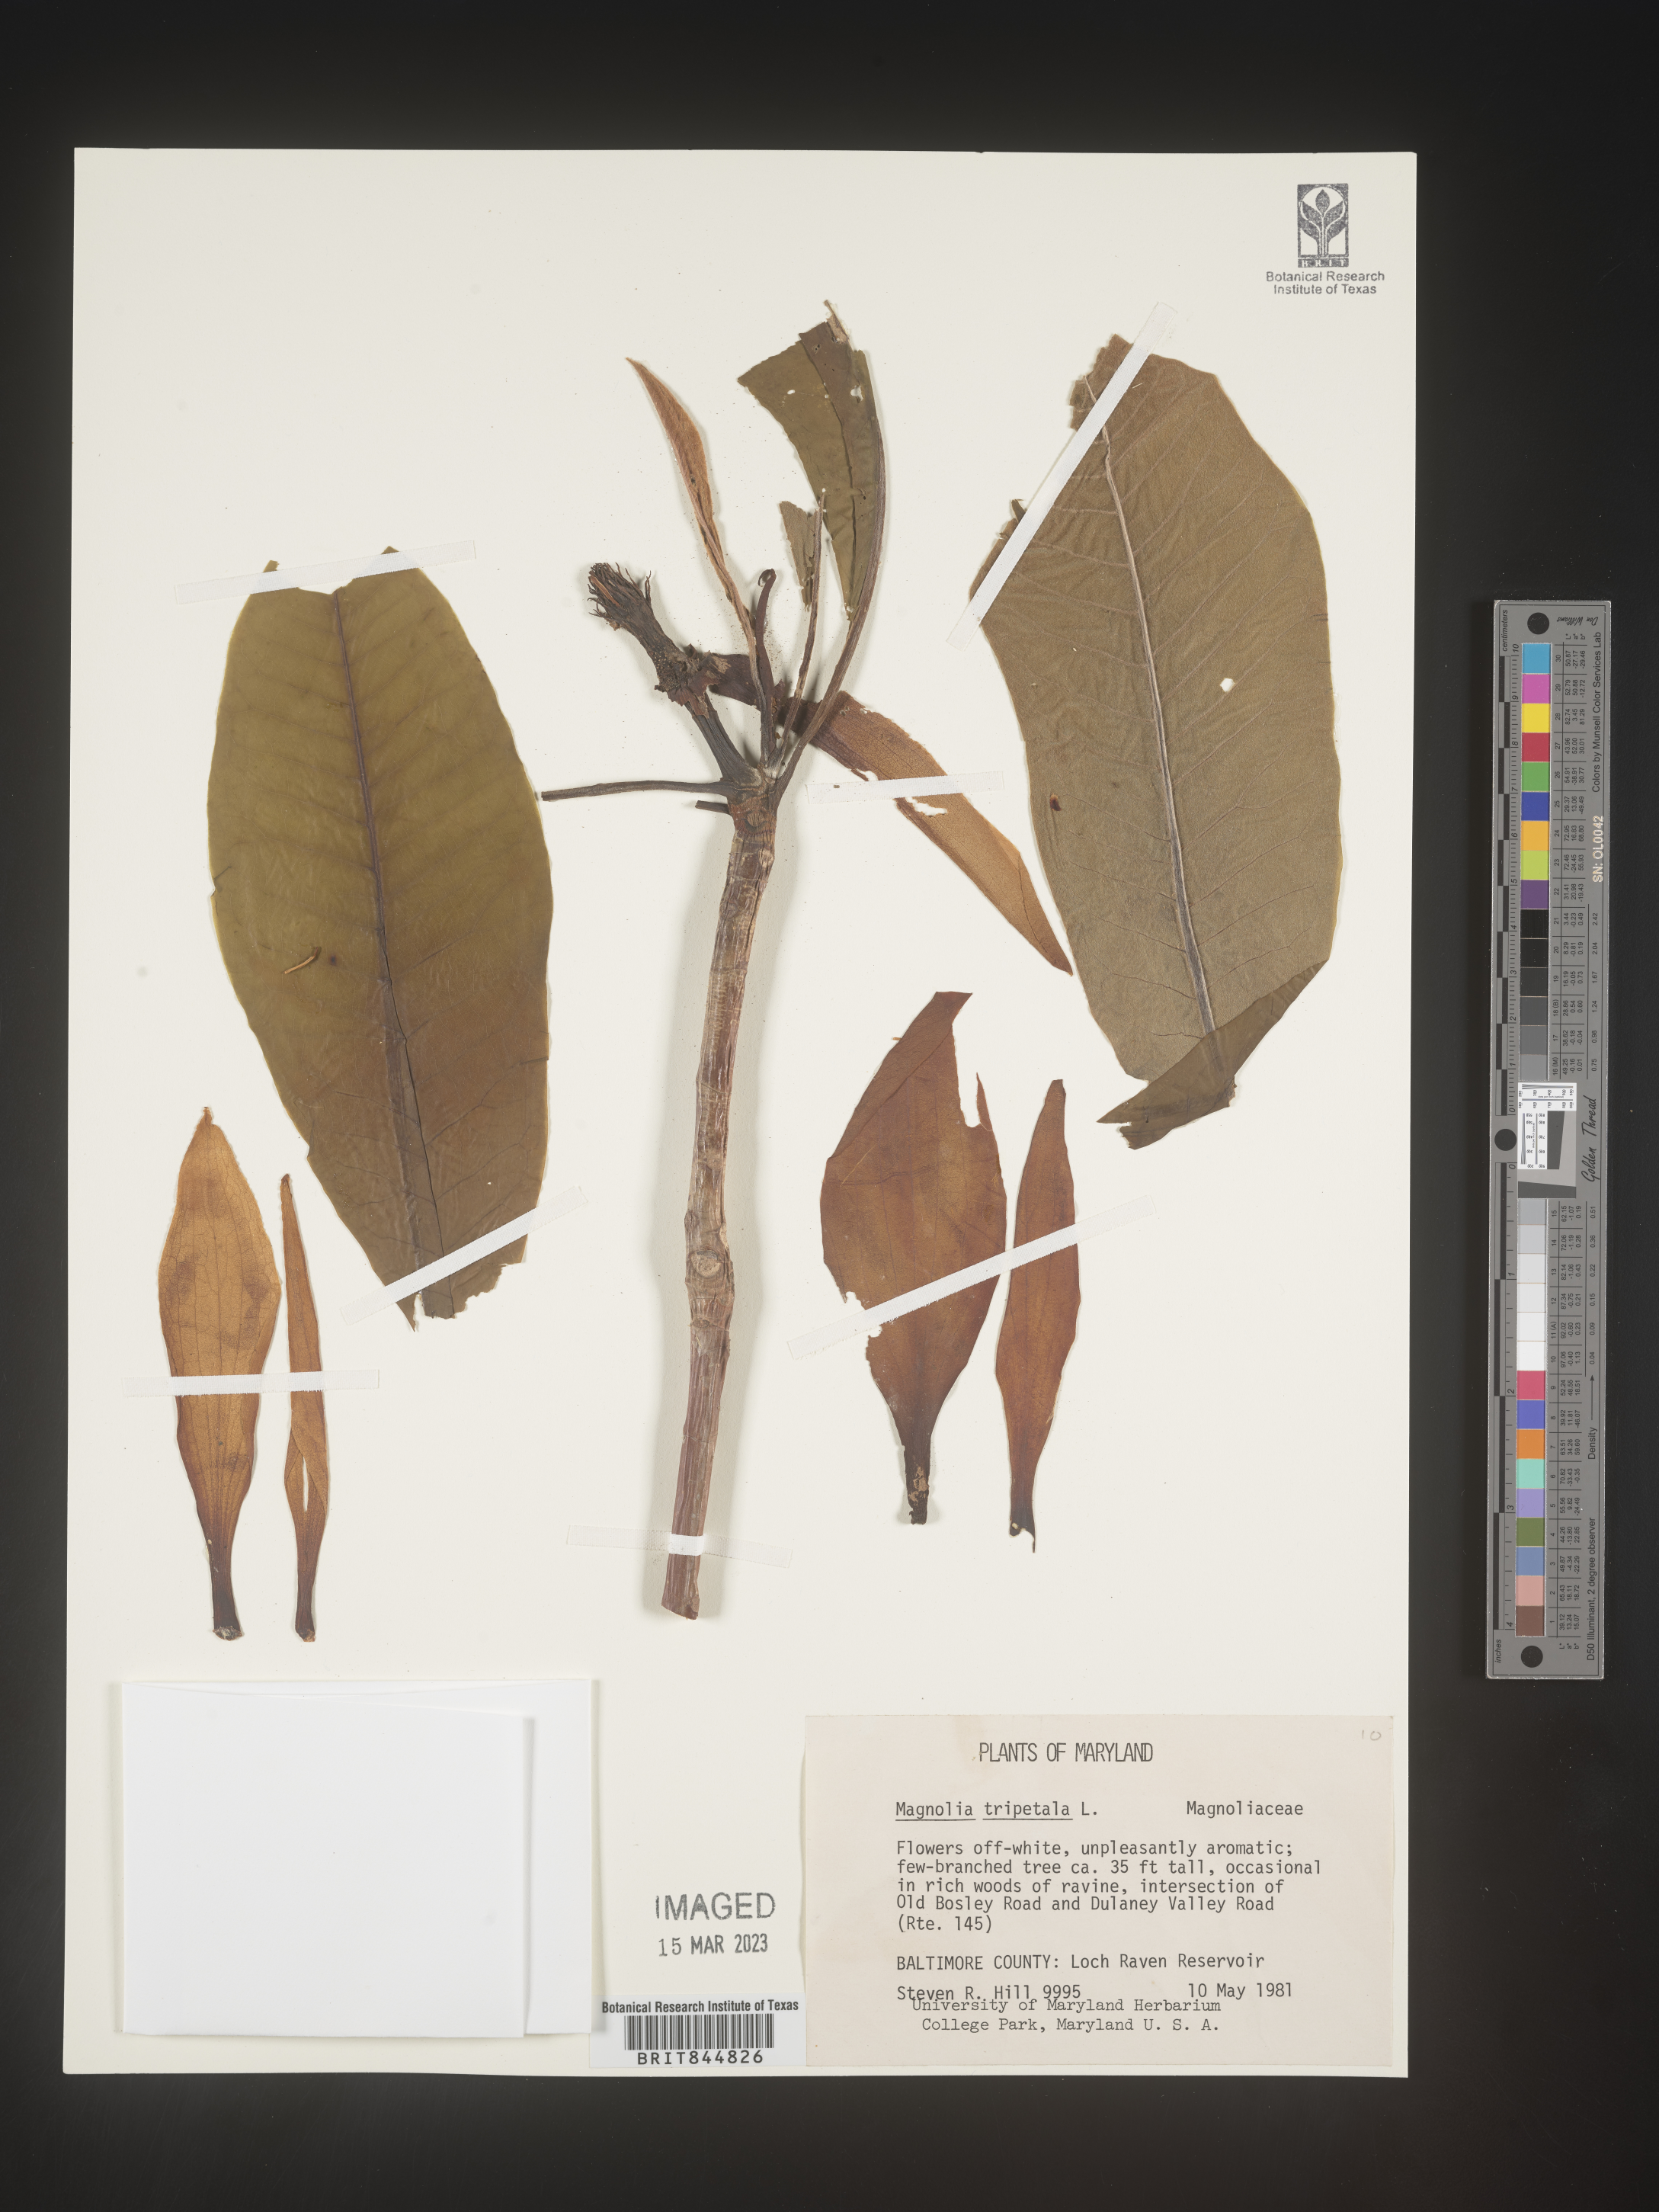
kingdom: Plantae
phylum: Tracheophyta
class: Magnoliopsida
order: Magnoliales
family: Magnoliaceae
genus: Magnolia
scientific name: Magnolia tripetala
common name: Umbrella magnolia
